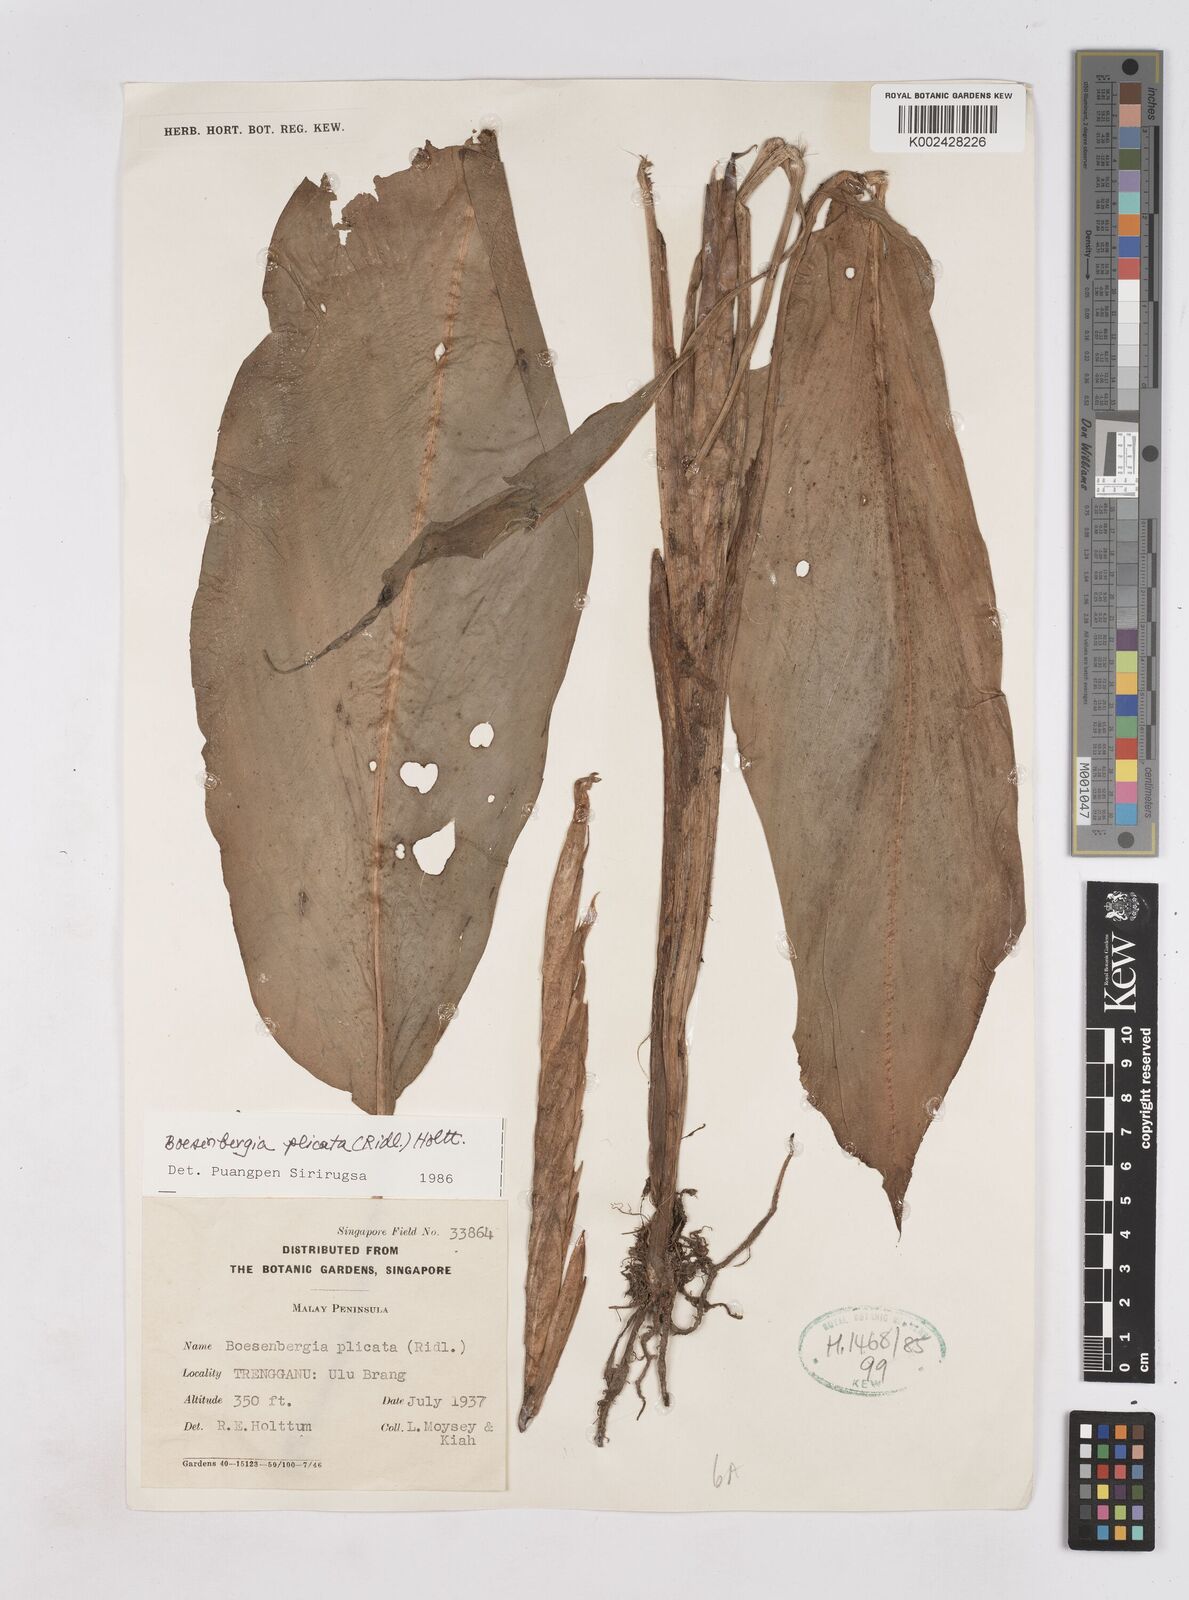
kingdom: Plantae
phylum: Tracheophyta
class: Liliopsida
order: Zingiberales
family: Zingiberaceae
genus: Boesenbergia
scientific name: Boesenbergia plicata
